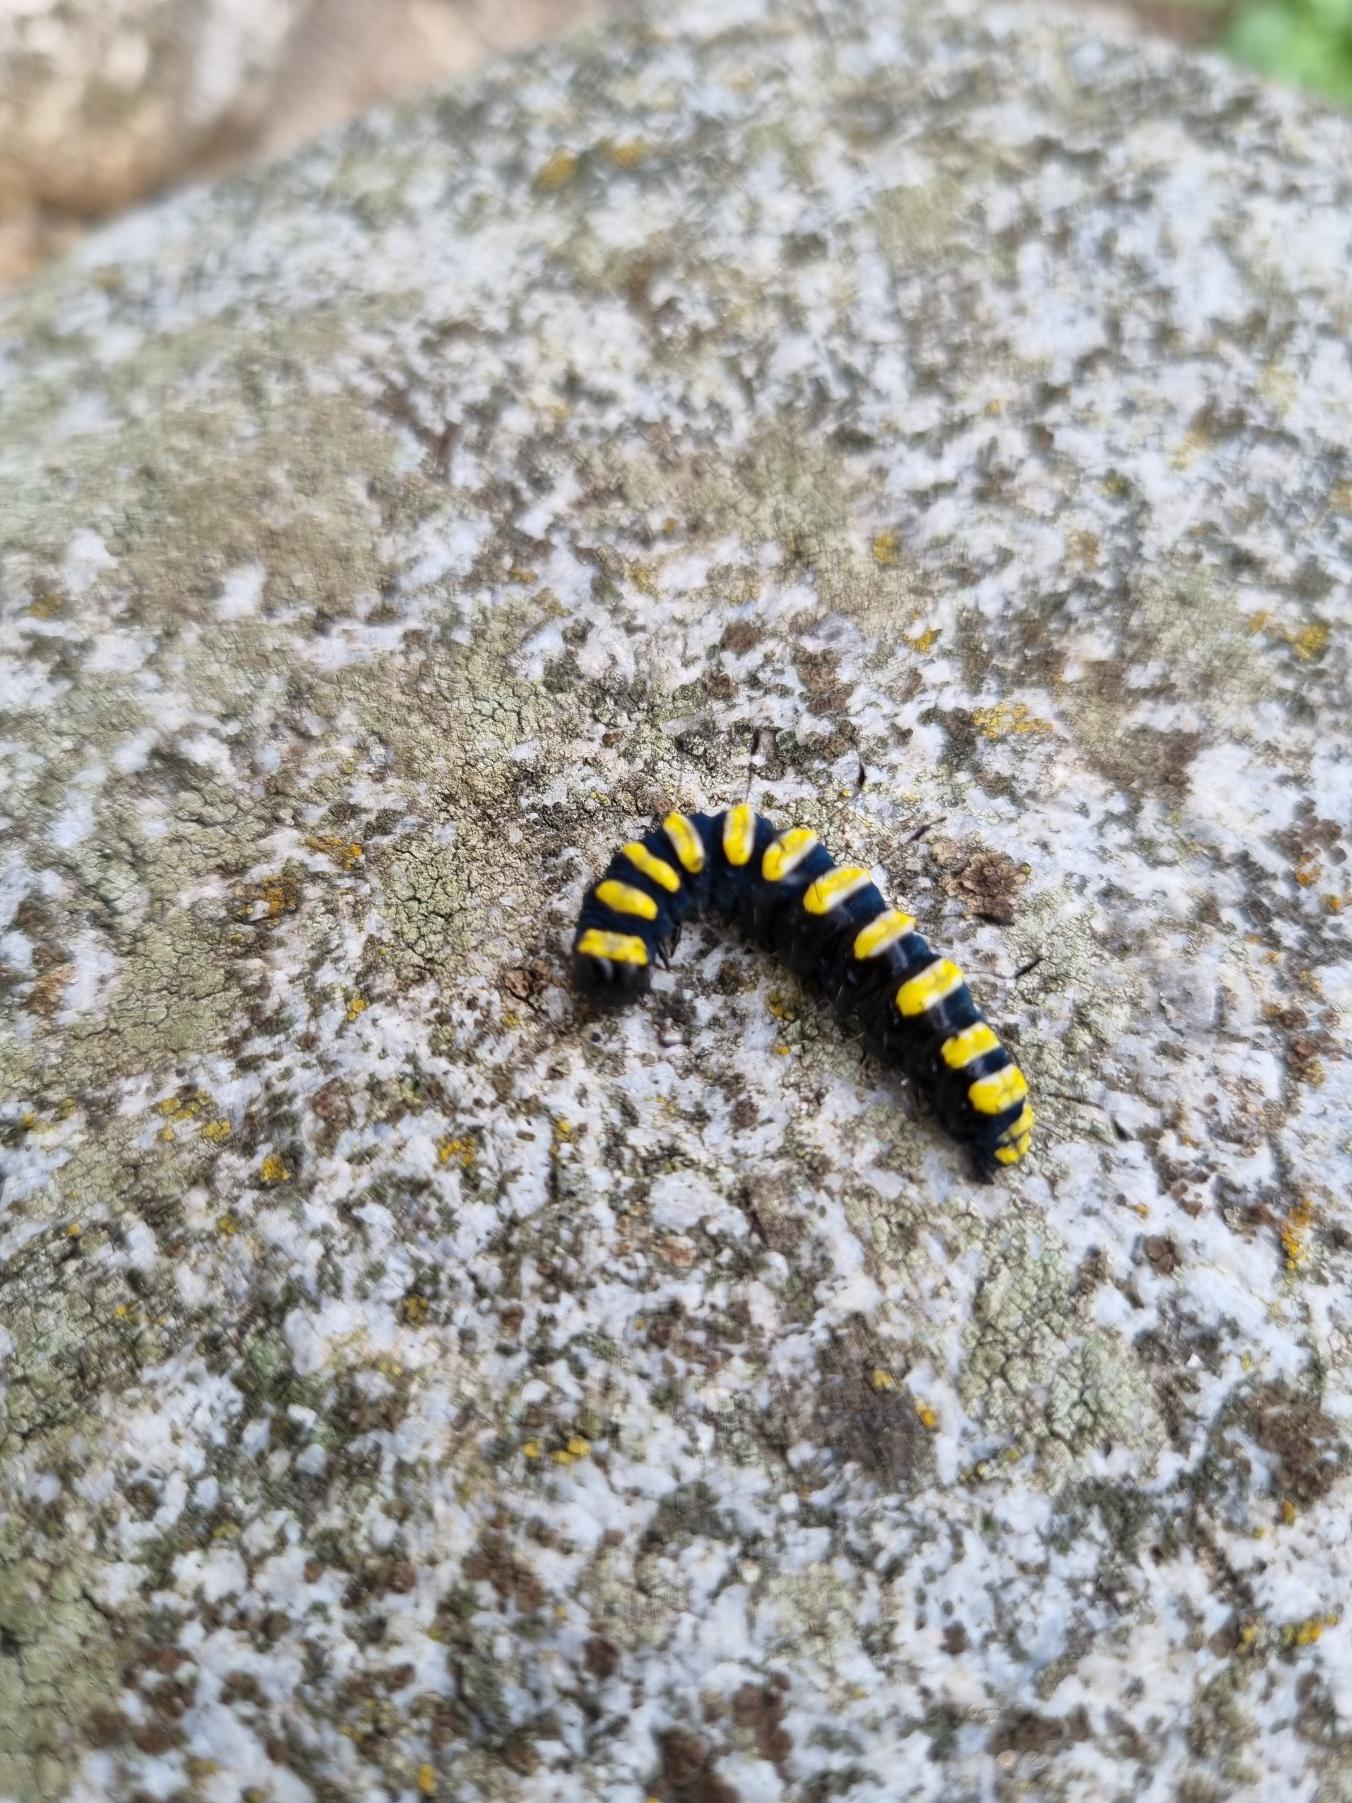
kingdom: Animalia
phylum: Arthropoda
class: Insecta
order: Lepidoptera
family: Noctuidae
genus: Acronicta
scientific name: Acronicta alni
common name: Kølleugle
